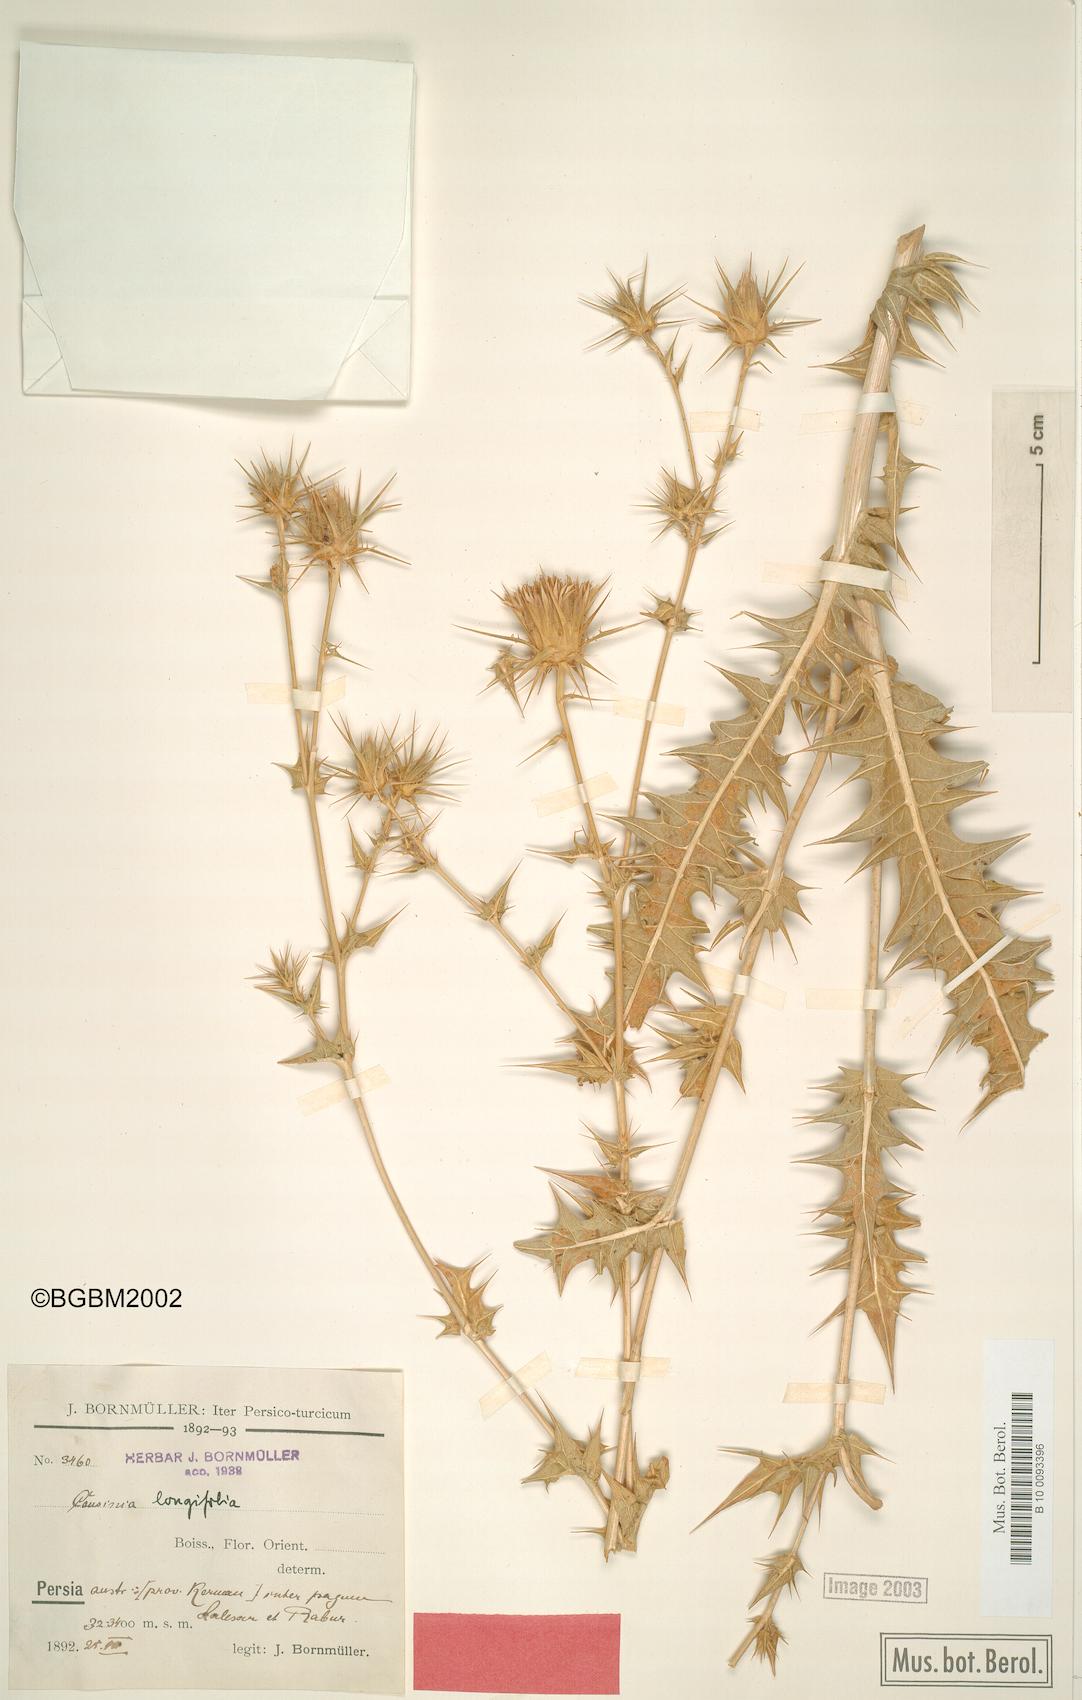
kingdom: Plantae
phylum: Tracheophyta
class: Magnoliopsida
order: Asterales
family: Asteraceae
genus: Cousinia
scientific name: Cousinia longifolia
